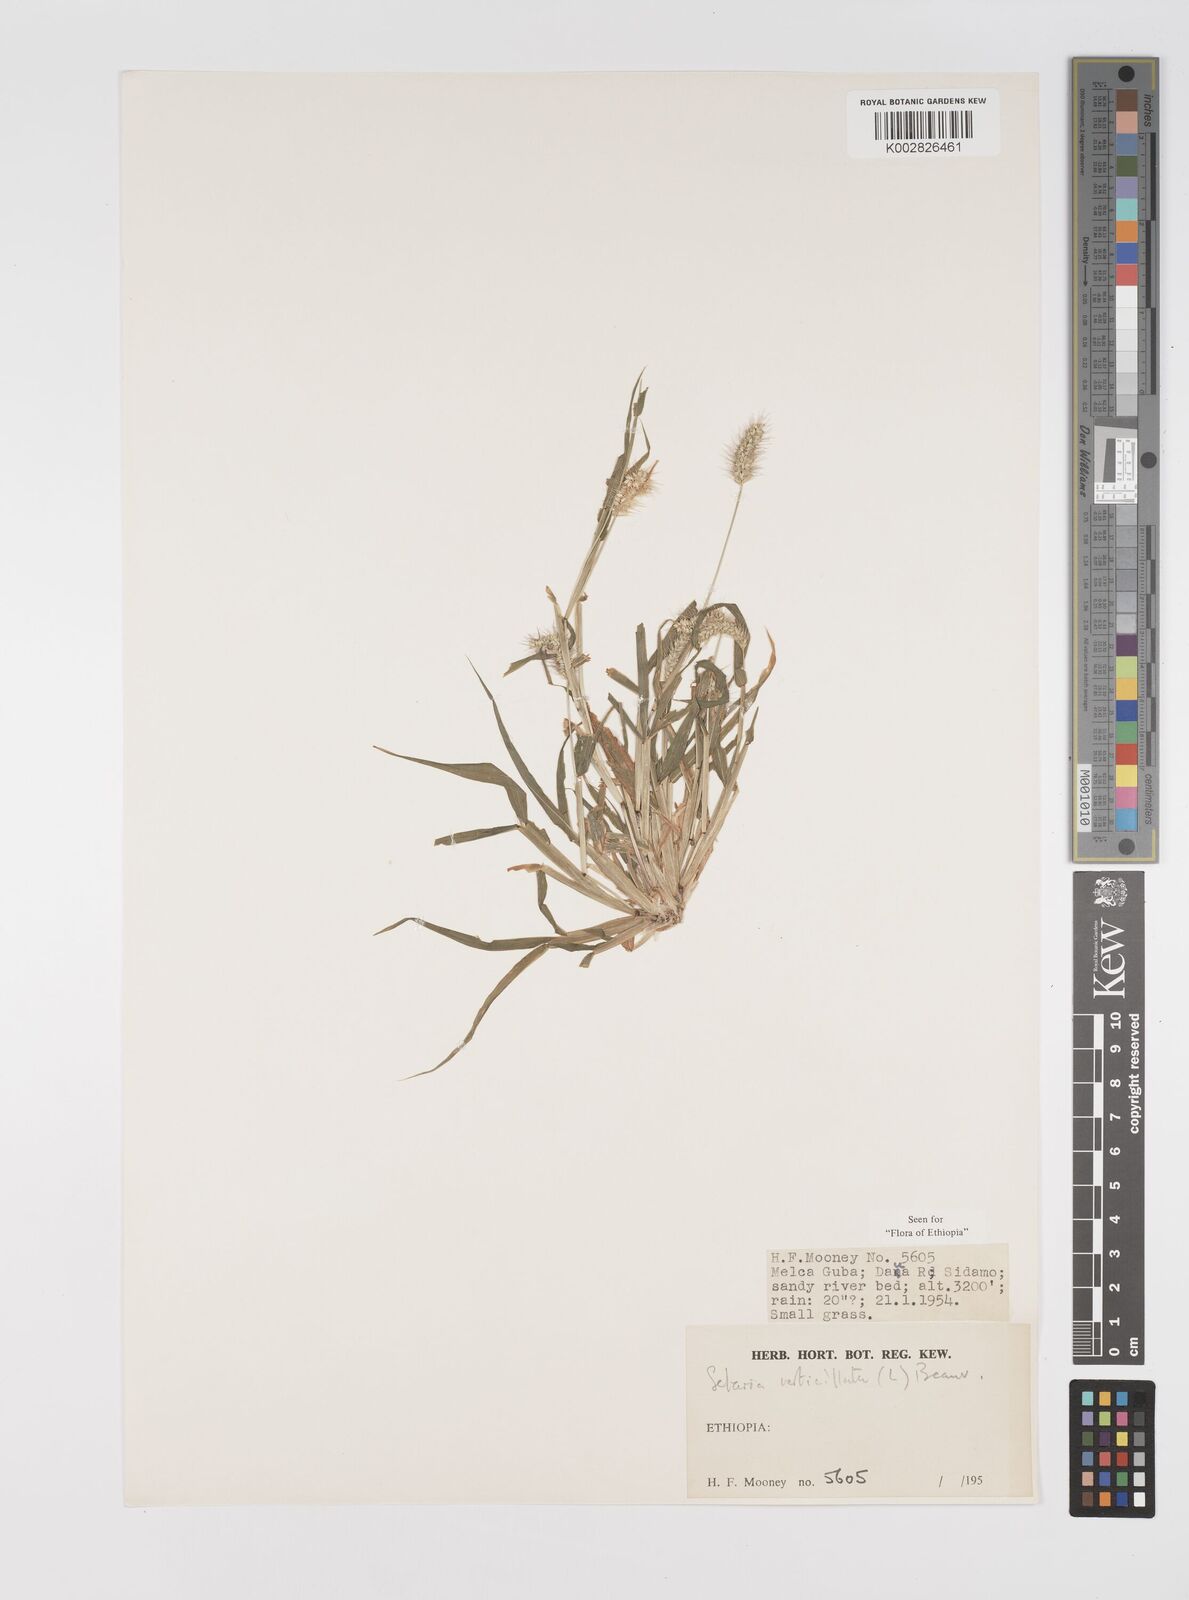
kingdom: Plantae
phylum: Tracheophyta
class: Liliopsida
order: Poales
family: Poaceae
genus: Setaria
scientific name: Setaria verticillata
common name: Hooked bristlegrass
